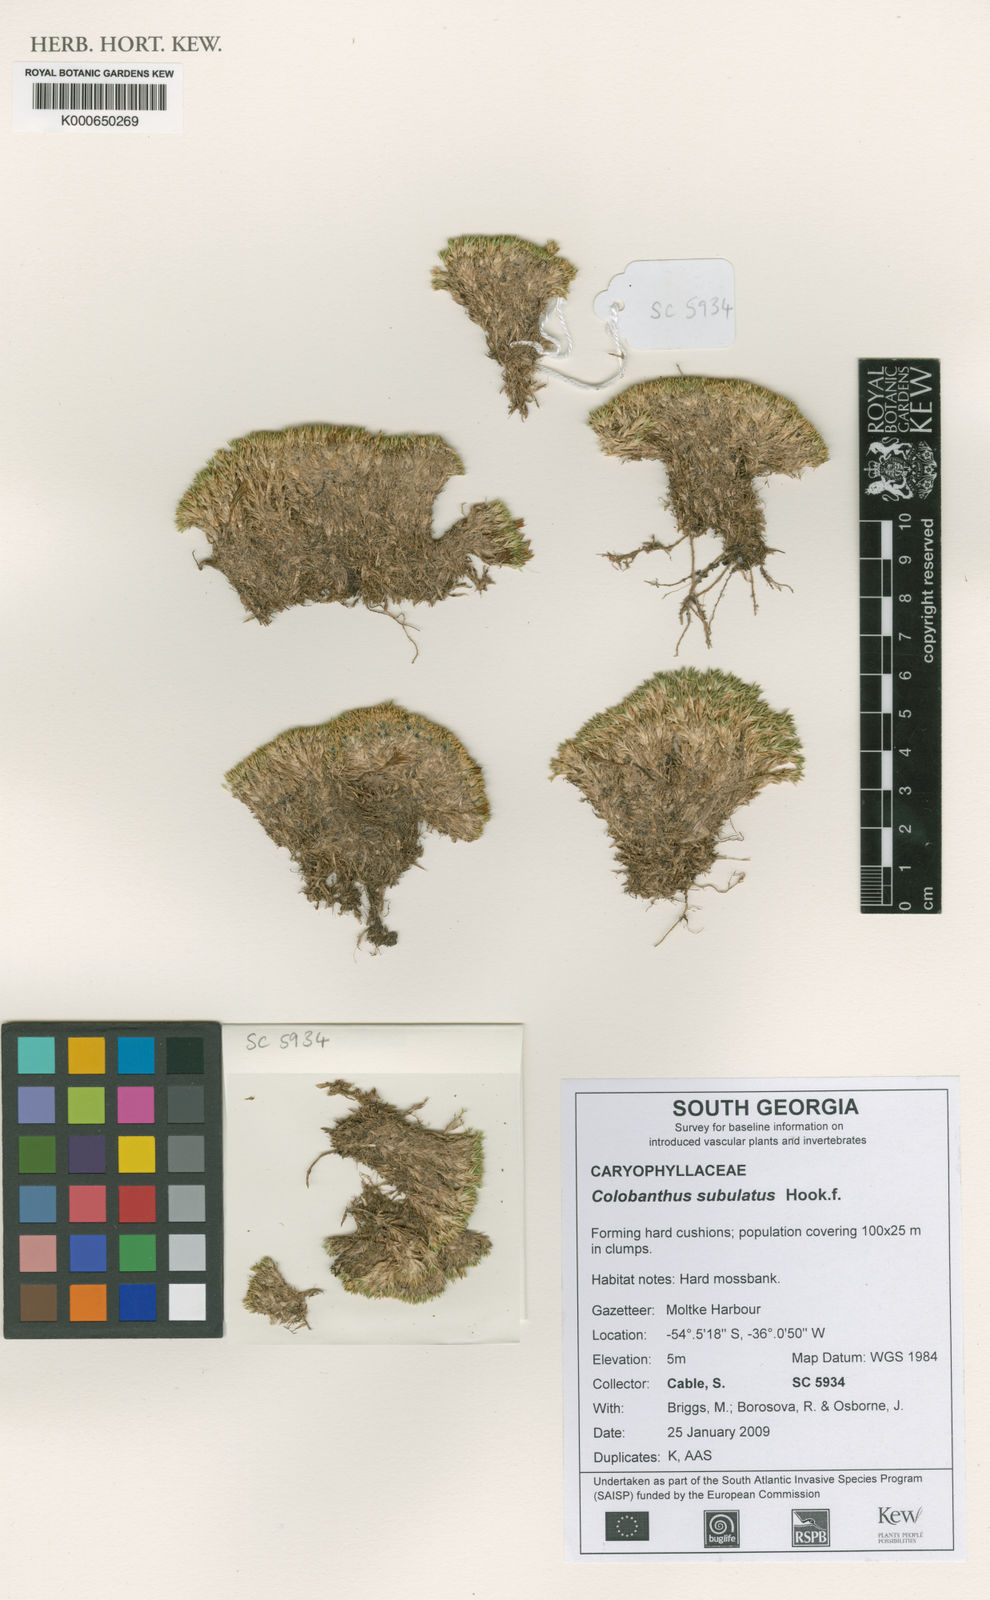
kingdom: Plantae
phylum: Tracheophyta
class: Magnoliopsida
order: Caryophyllales
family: Caryophyllaceae
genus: Colobanthus
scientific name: Colobanthus subulatus
